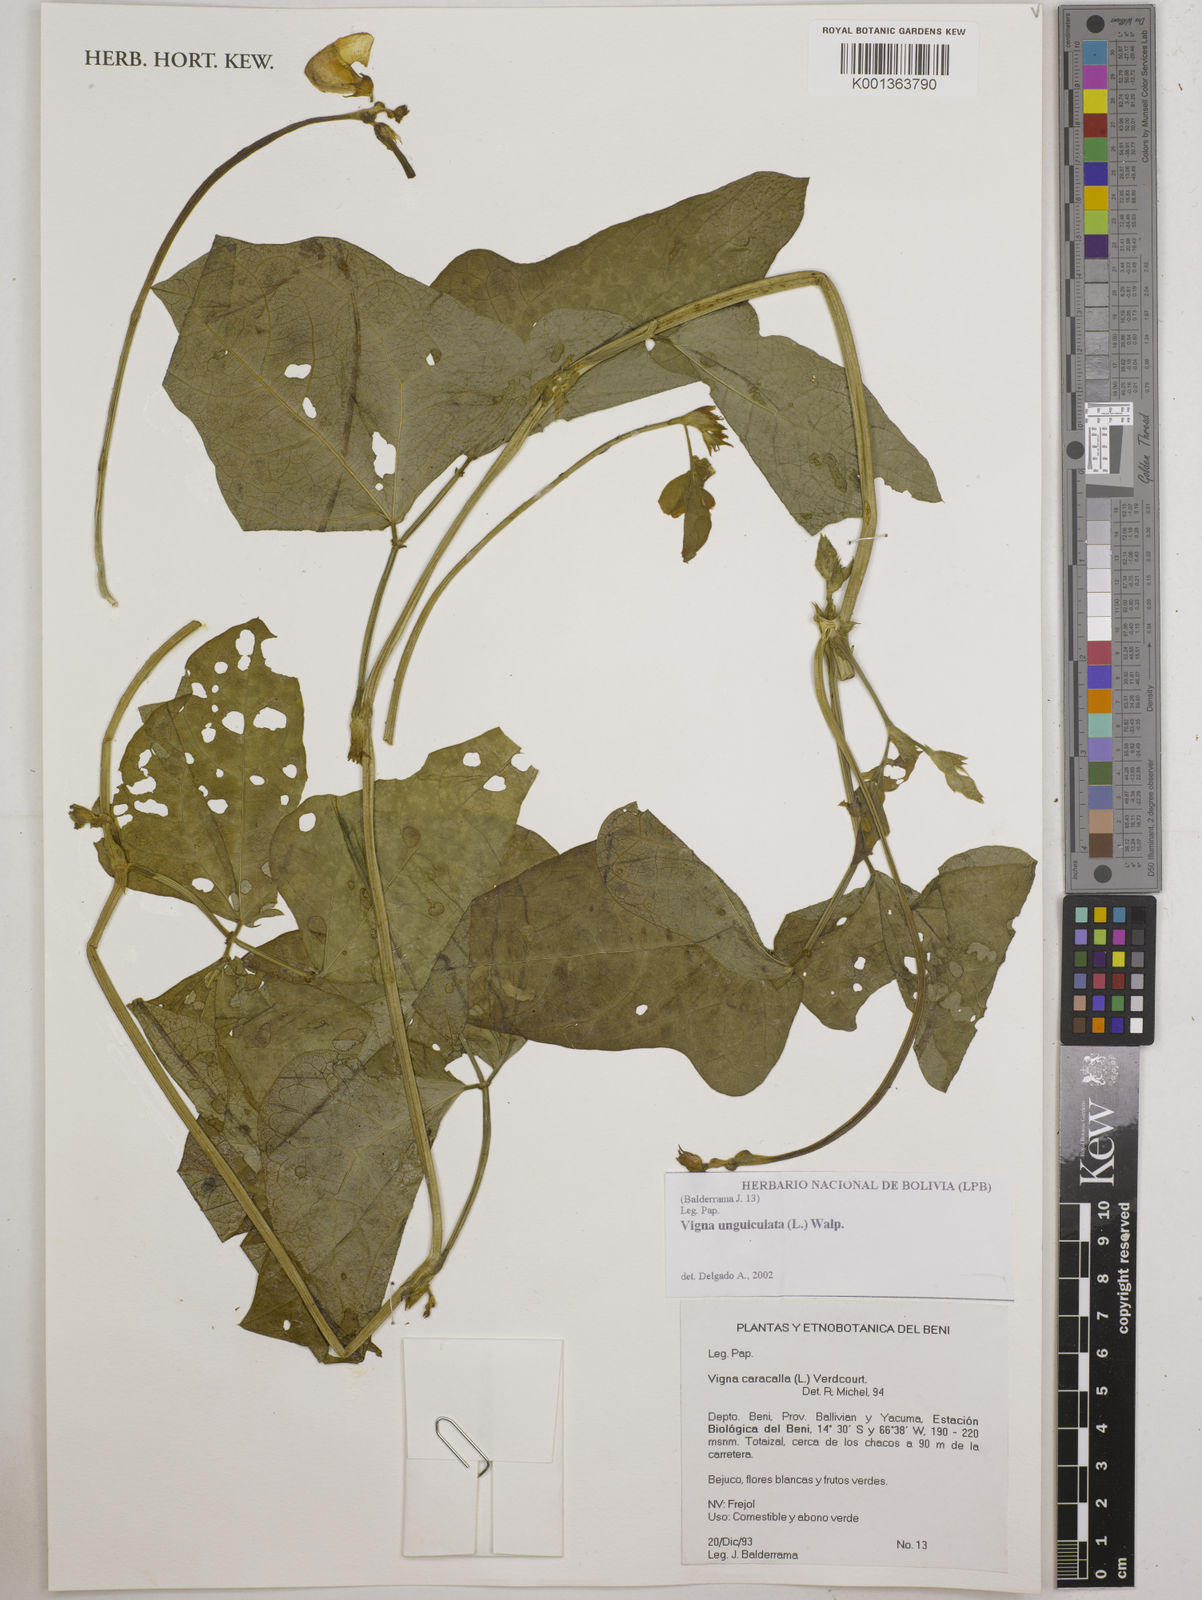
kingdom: Plantae
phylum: Tracheophyta
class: Magnoliopsida
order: Fabales
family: Fabaceae
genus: Vigna
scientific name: Vigna unguiculata
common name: Cowpea
